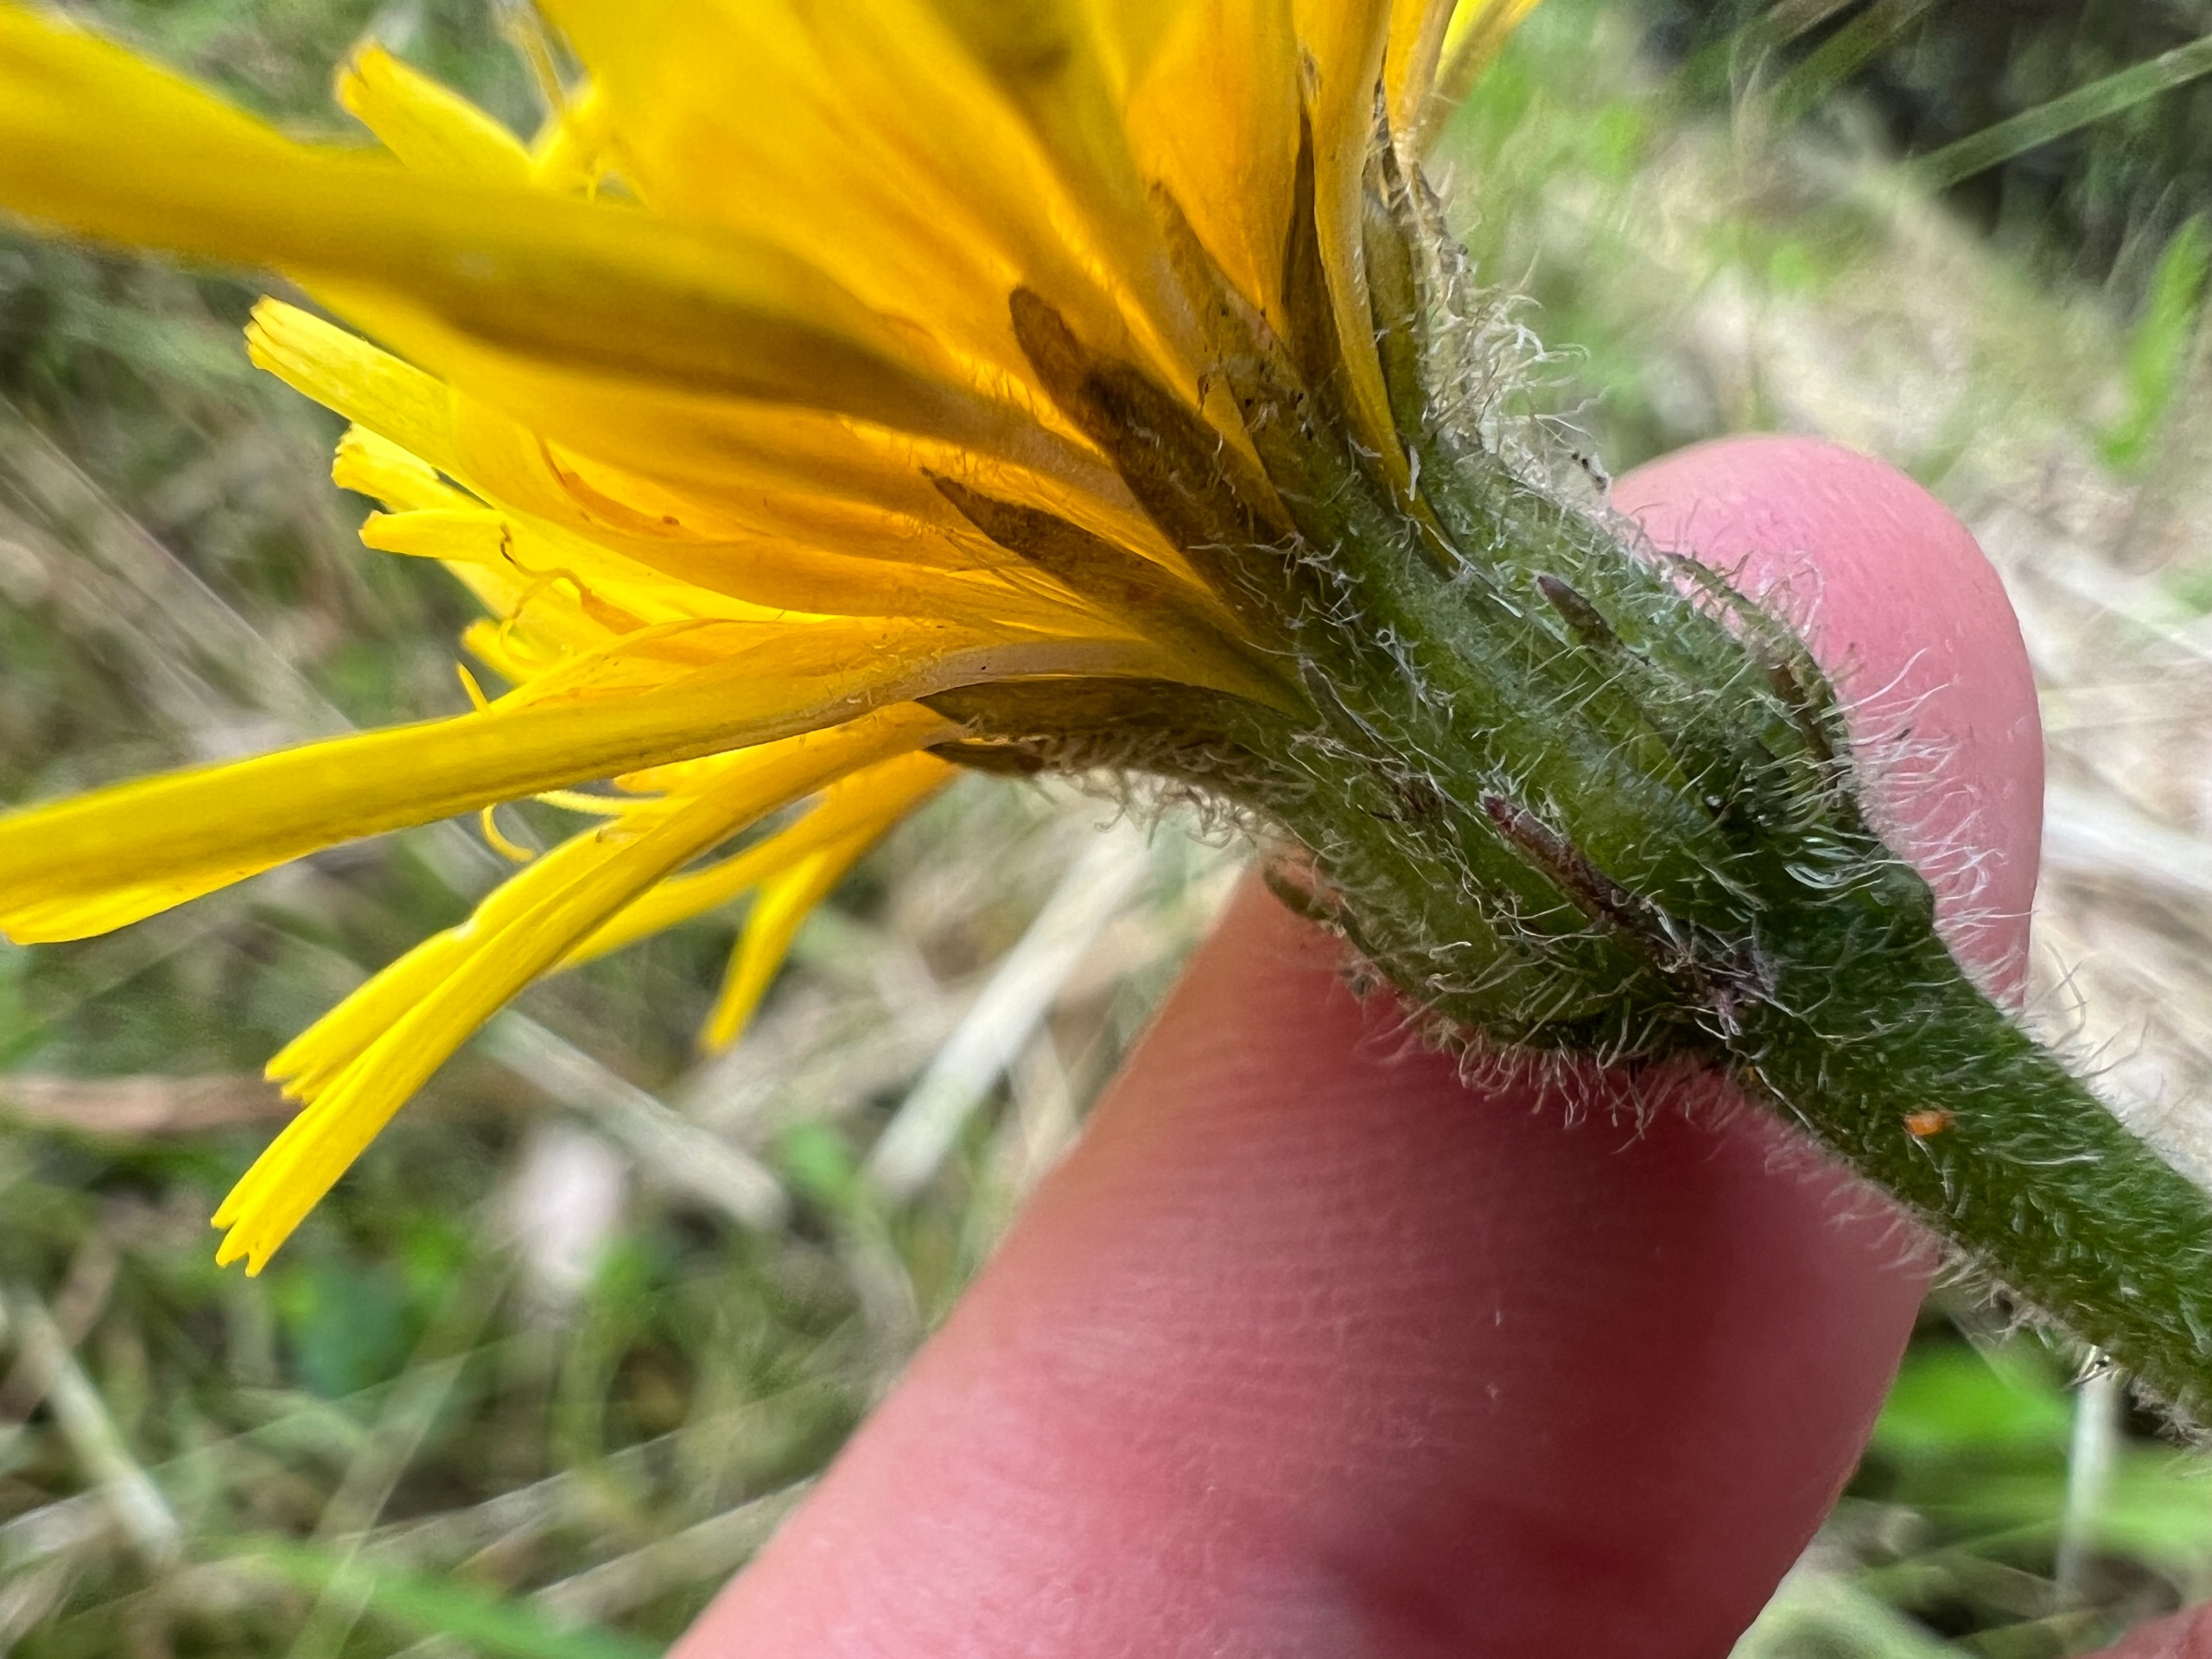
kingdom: Plantae
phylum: Tracheophyta
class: Magnoliopsida
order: Asterales
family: Asteraceae
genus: Leontodon
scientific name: Leontodon hispidus
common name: Stivhåret borst
